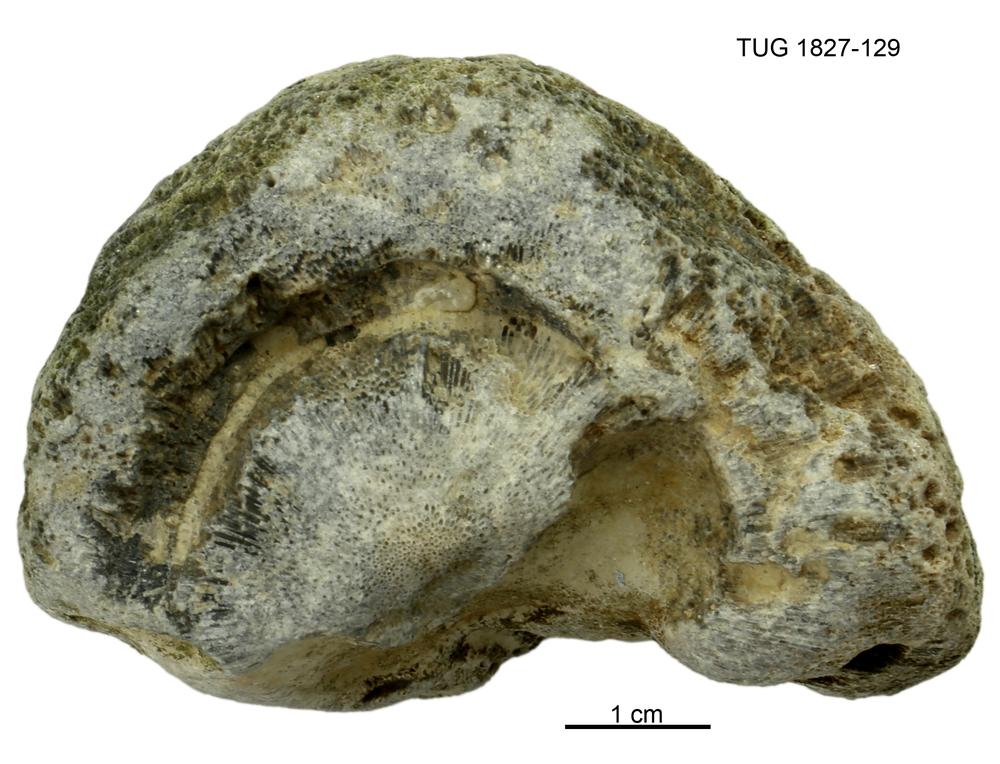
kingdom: Animalia
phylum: Cnidaria
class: Anthozoa
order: Heliolitina
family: Heliolitidae
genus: Acidolites
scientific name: Acidolites
